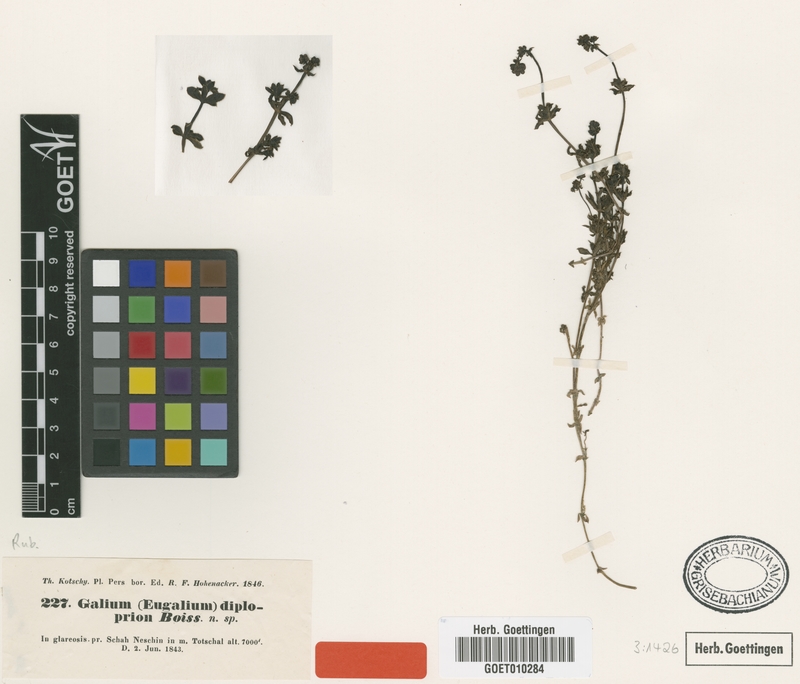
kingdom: Plantae
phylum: Tracheophyta
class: Magnoliopsida
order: Gentianales
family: Rubiaceae
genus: Galium
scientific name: Galium diploprion
